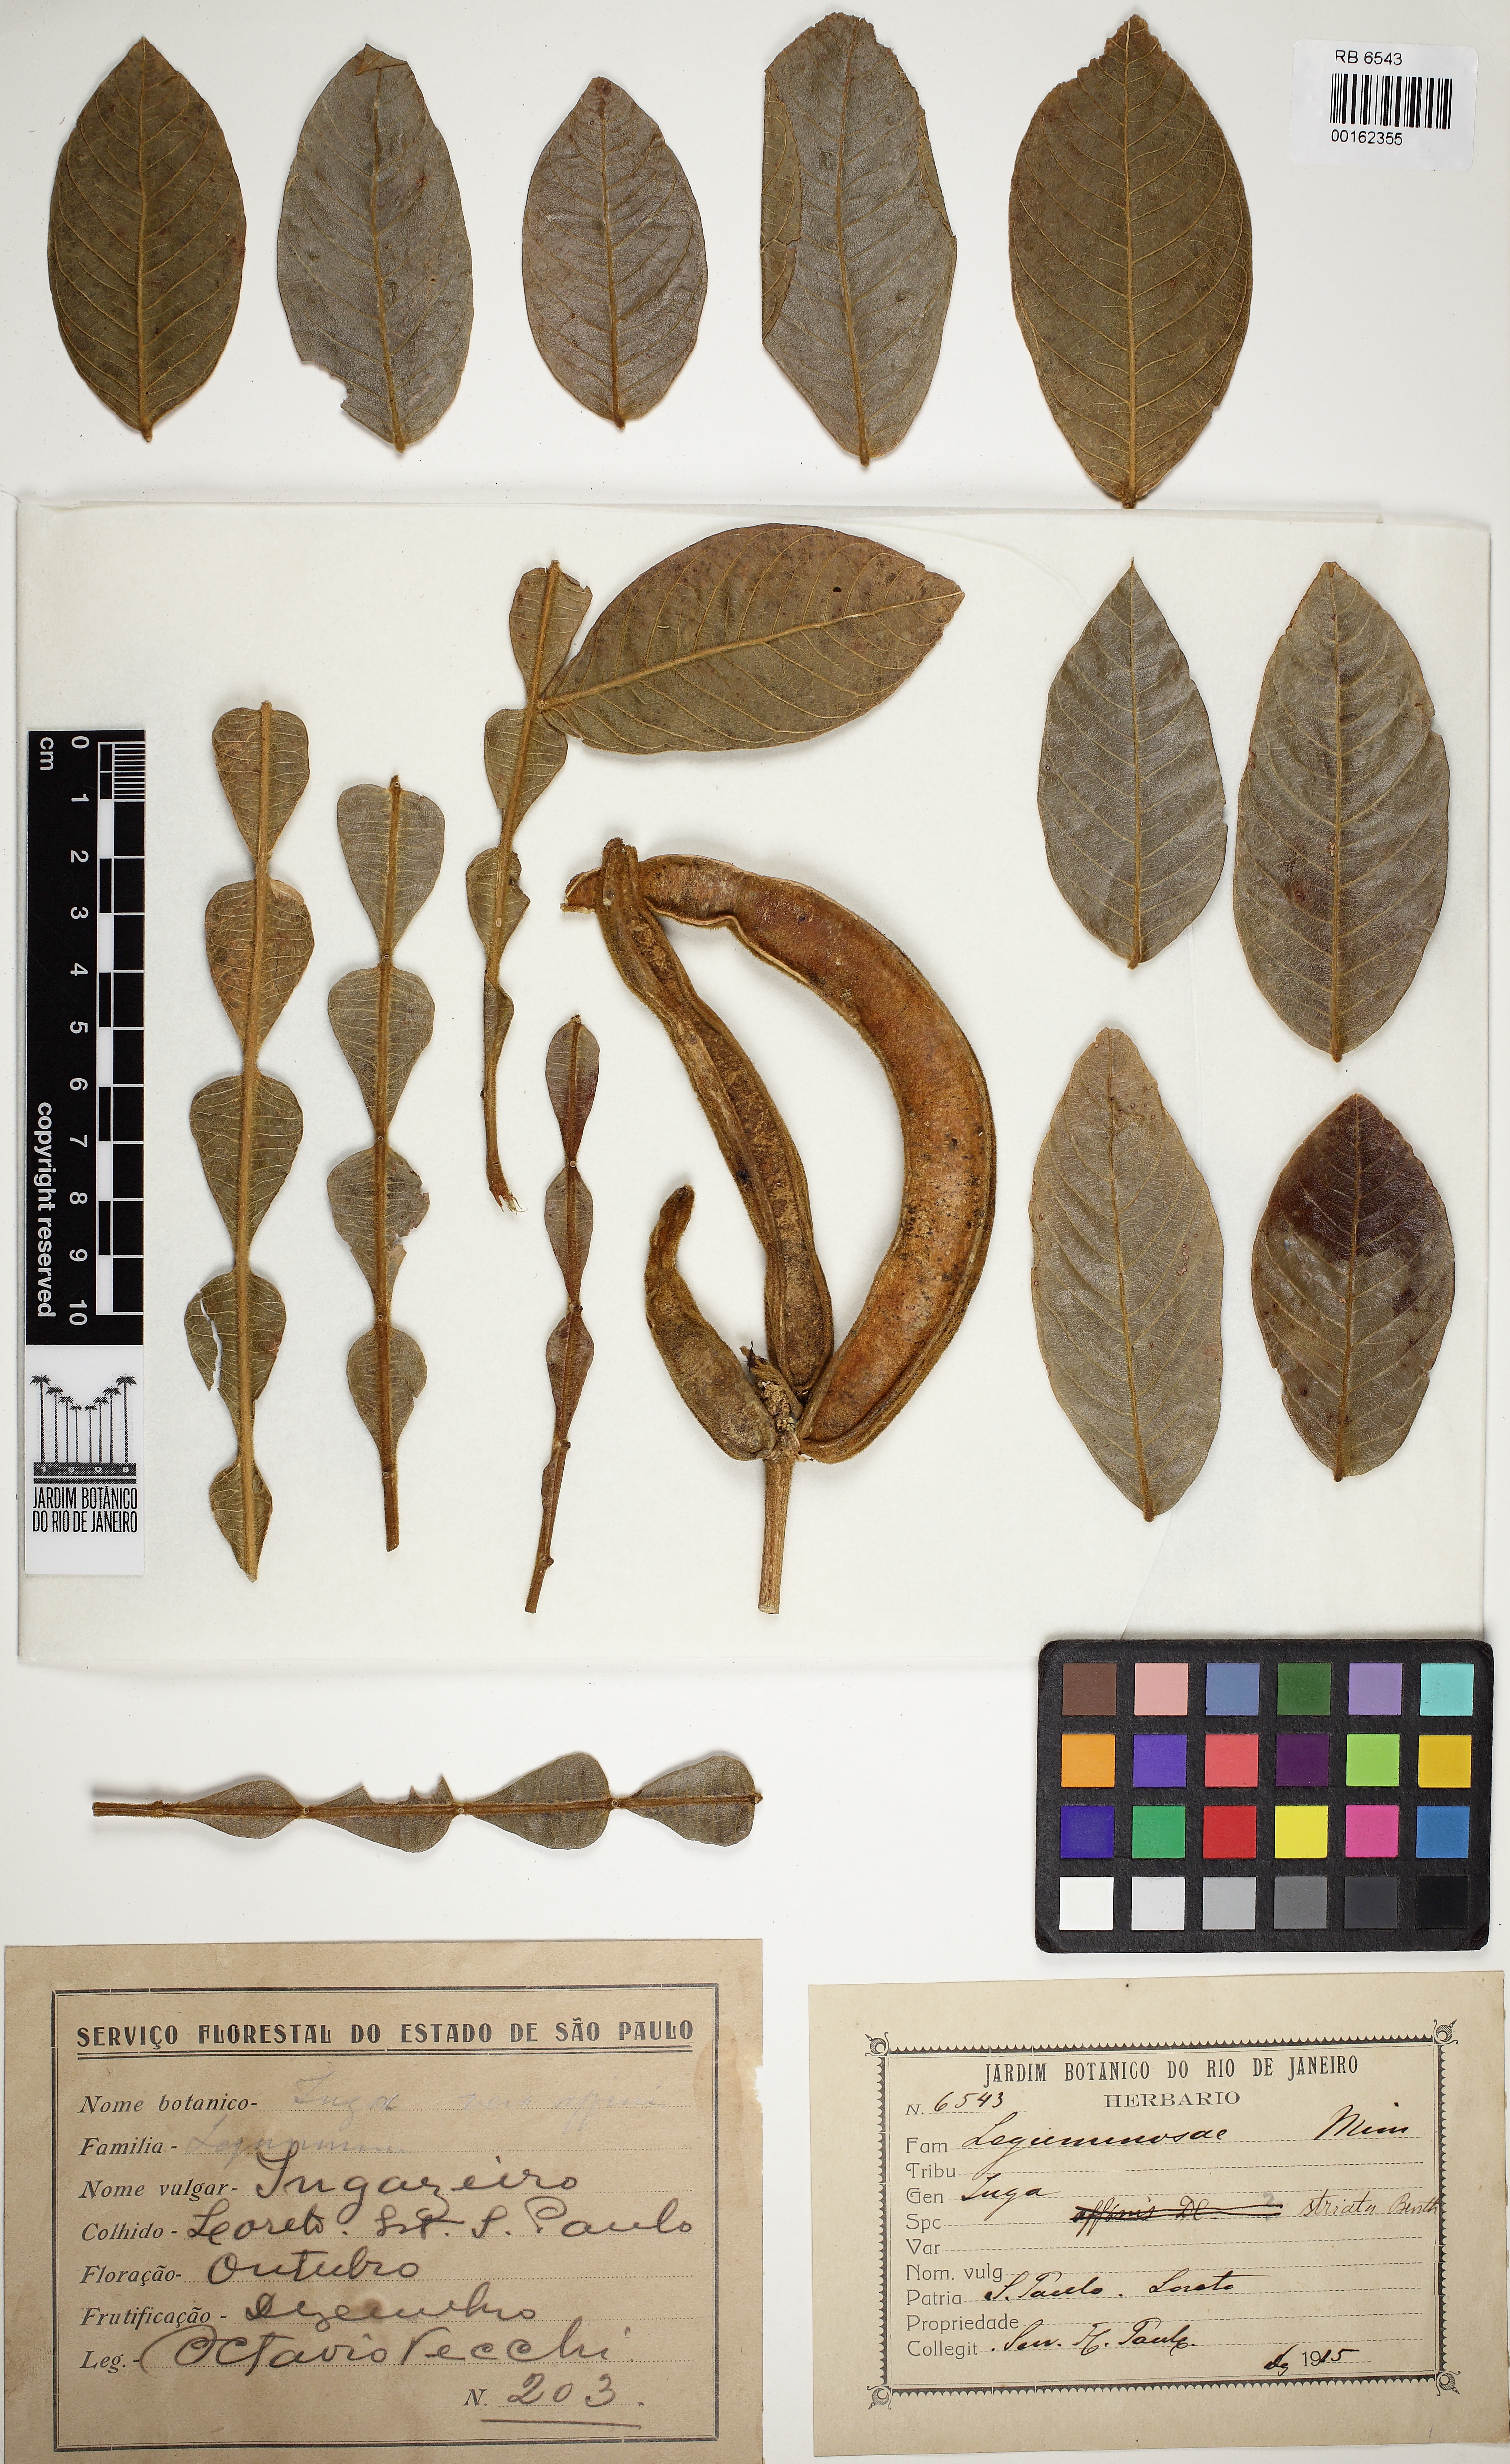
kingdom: Plantae
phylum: Tracheophyta
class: Magnoliopsida
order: Fabales
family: Fabaceae
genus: Inga
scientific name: Inga striata
